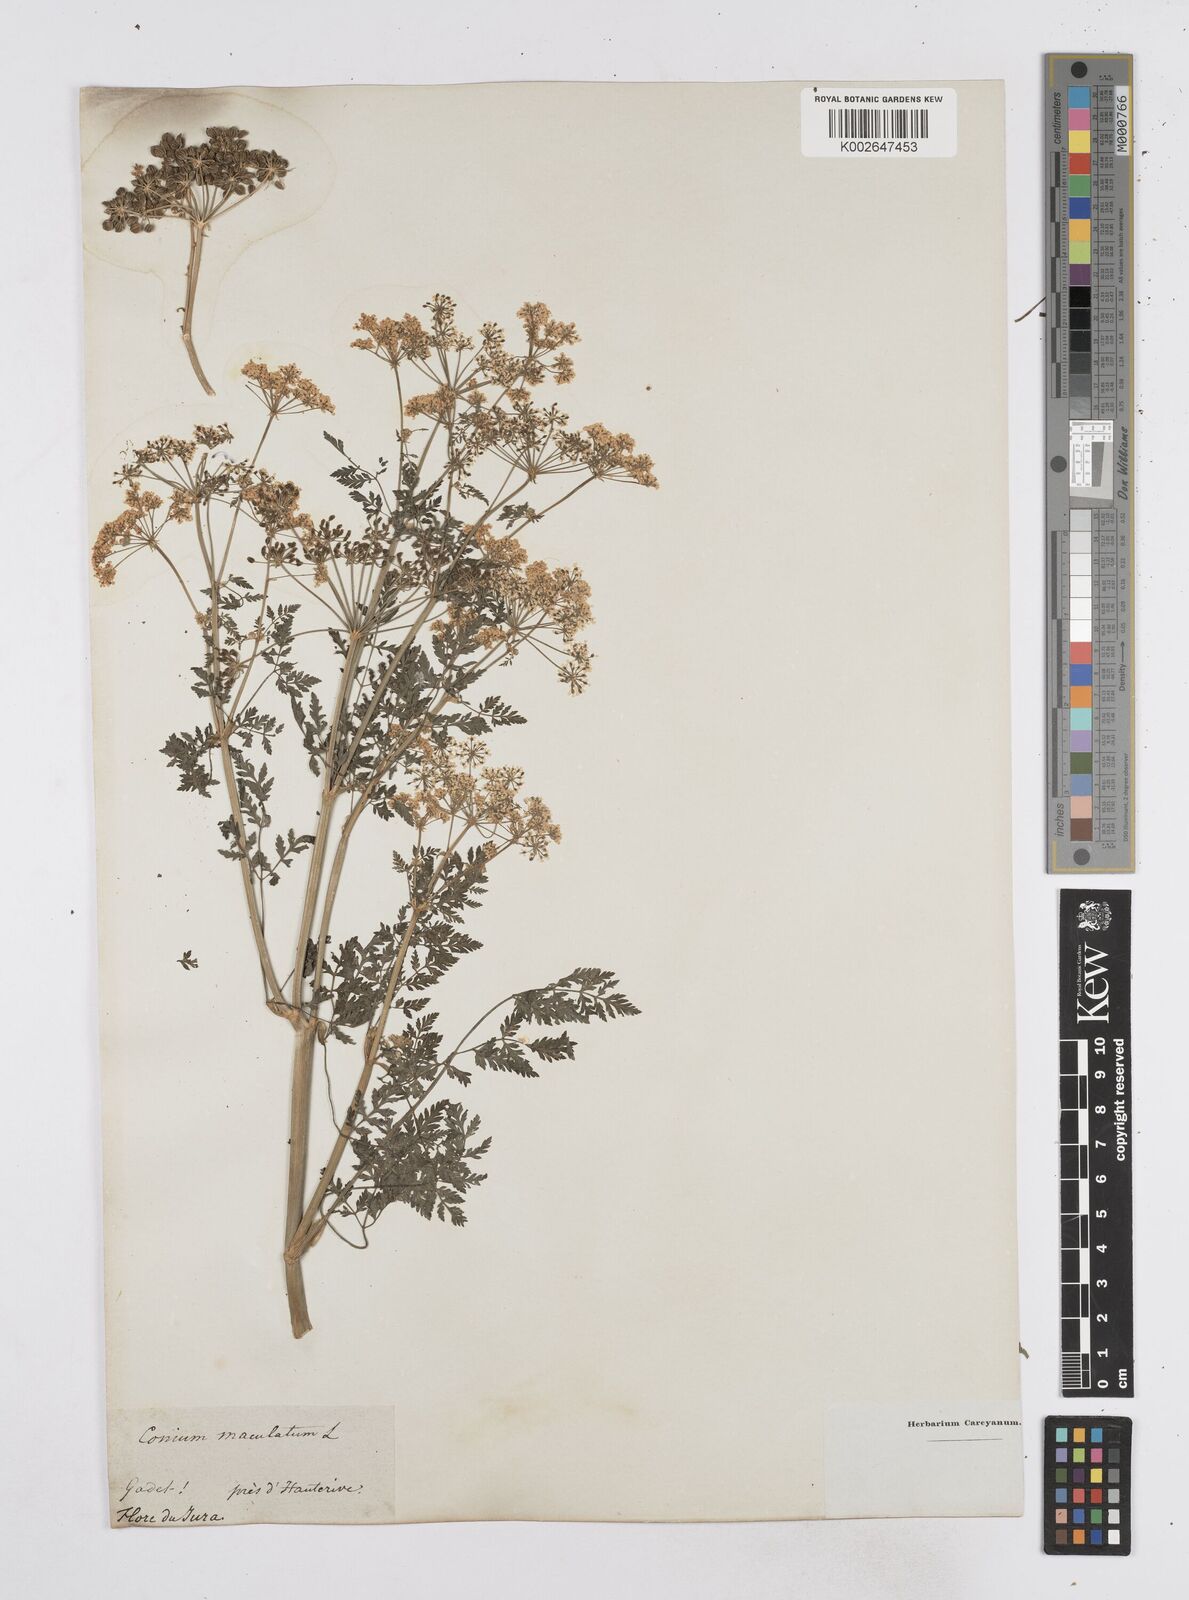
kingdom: Plantae
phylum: Tracheophyta
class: Magnoliopsida
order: Apiales
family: Apiaceae
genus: Conium
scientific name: Conium maculatum
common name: Hemlock
